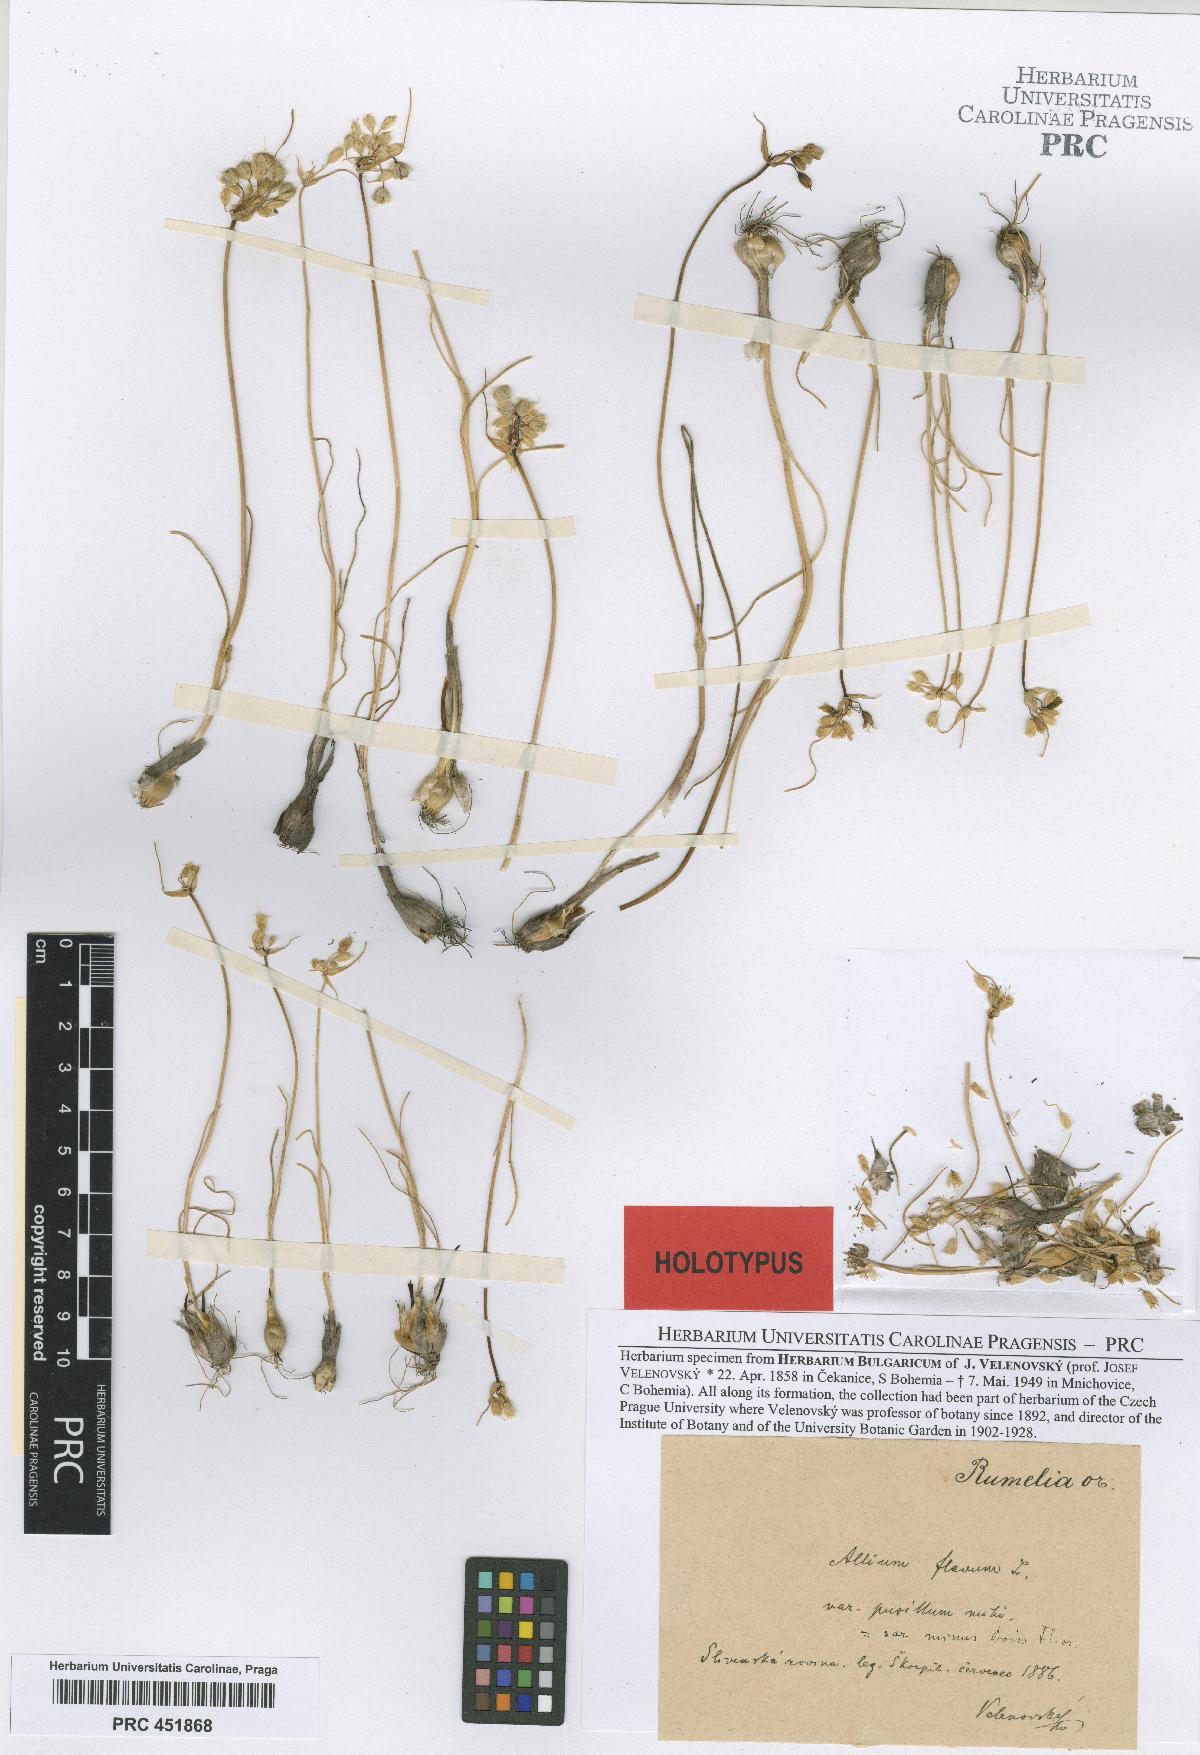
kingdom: Plantae
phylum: Tracheophyta
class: Liliopsida
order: Asparagales
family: Amaryllidaceae
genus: Allium
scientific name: Allium flavum
